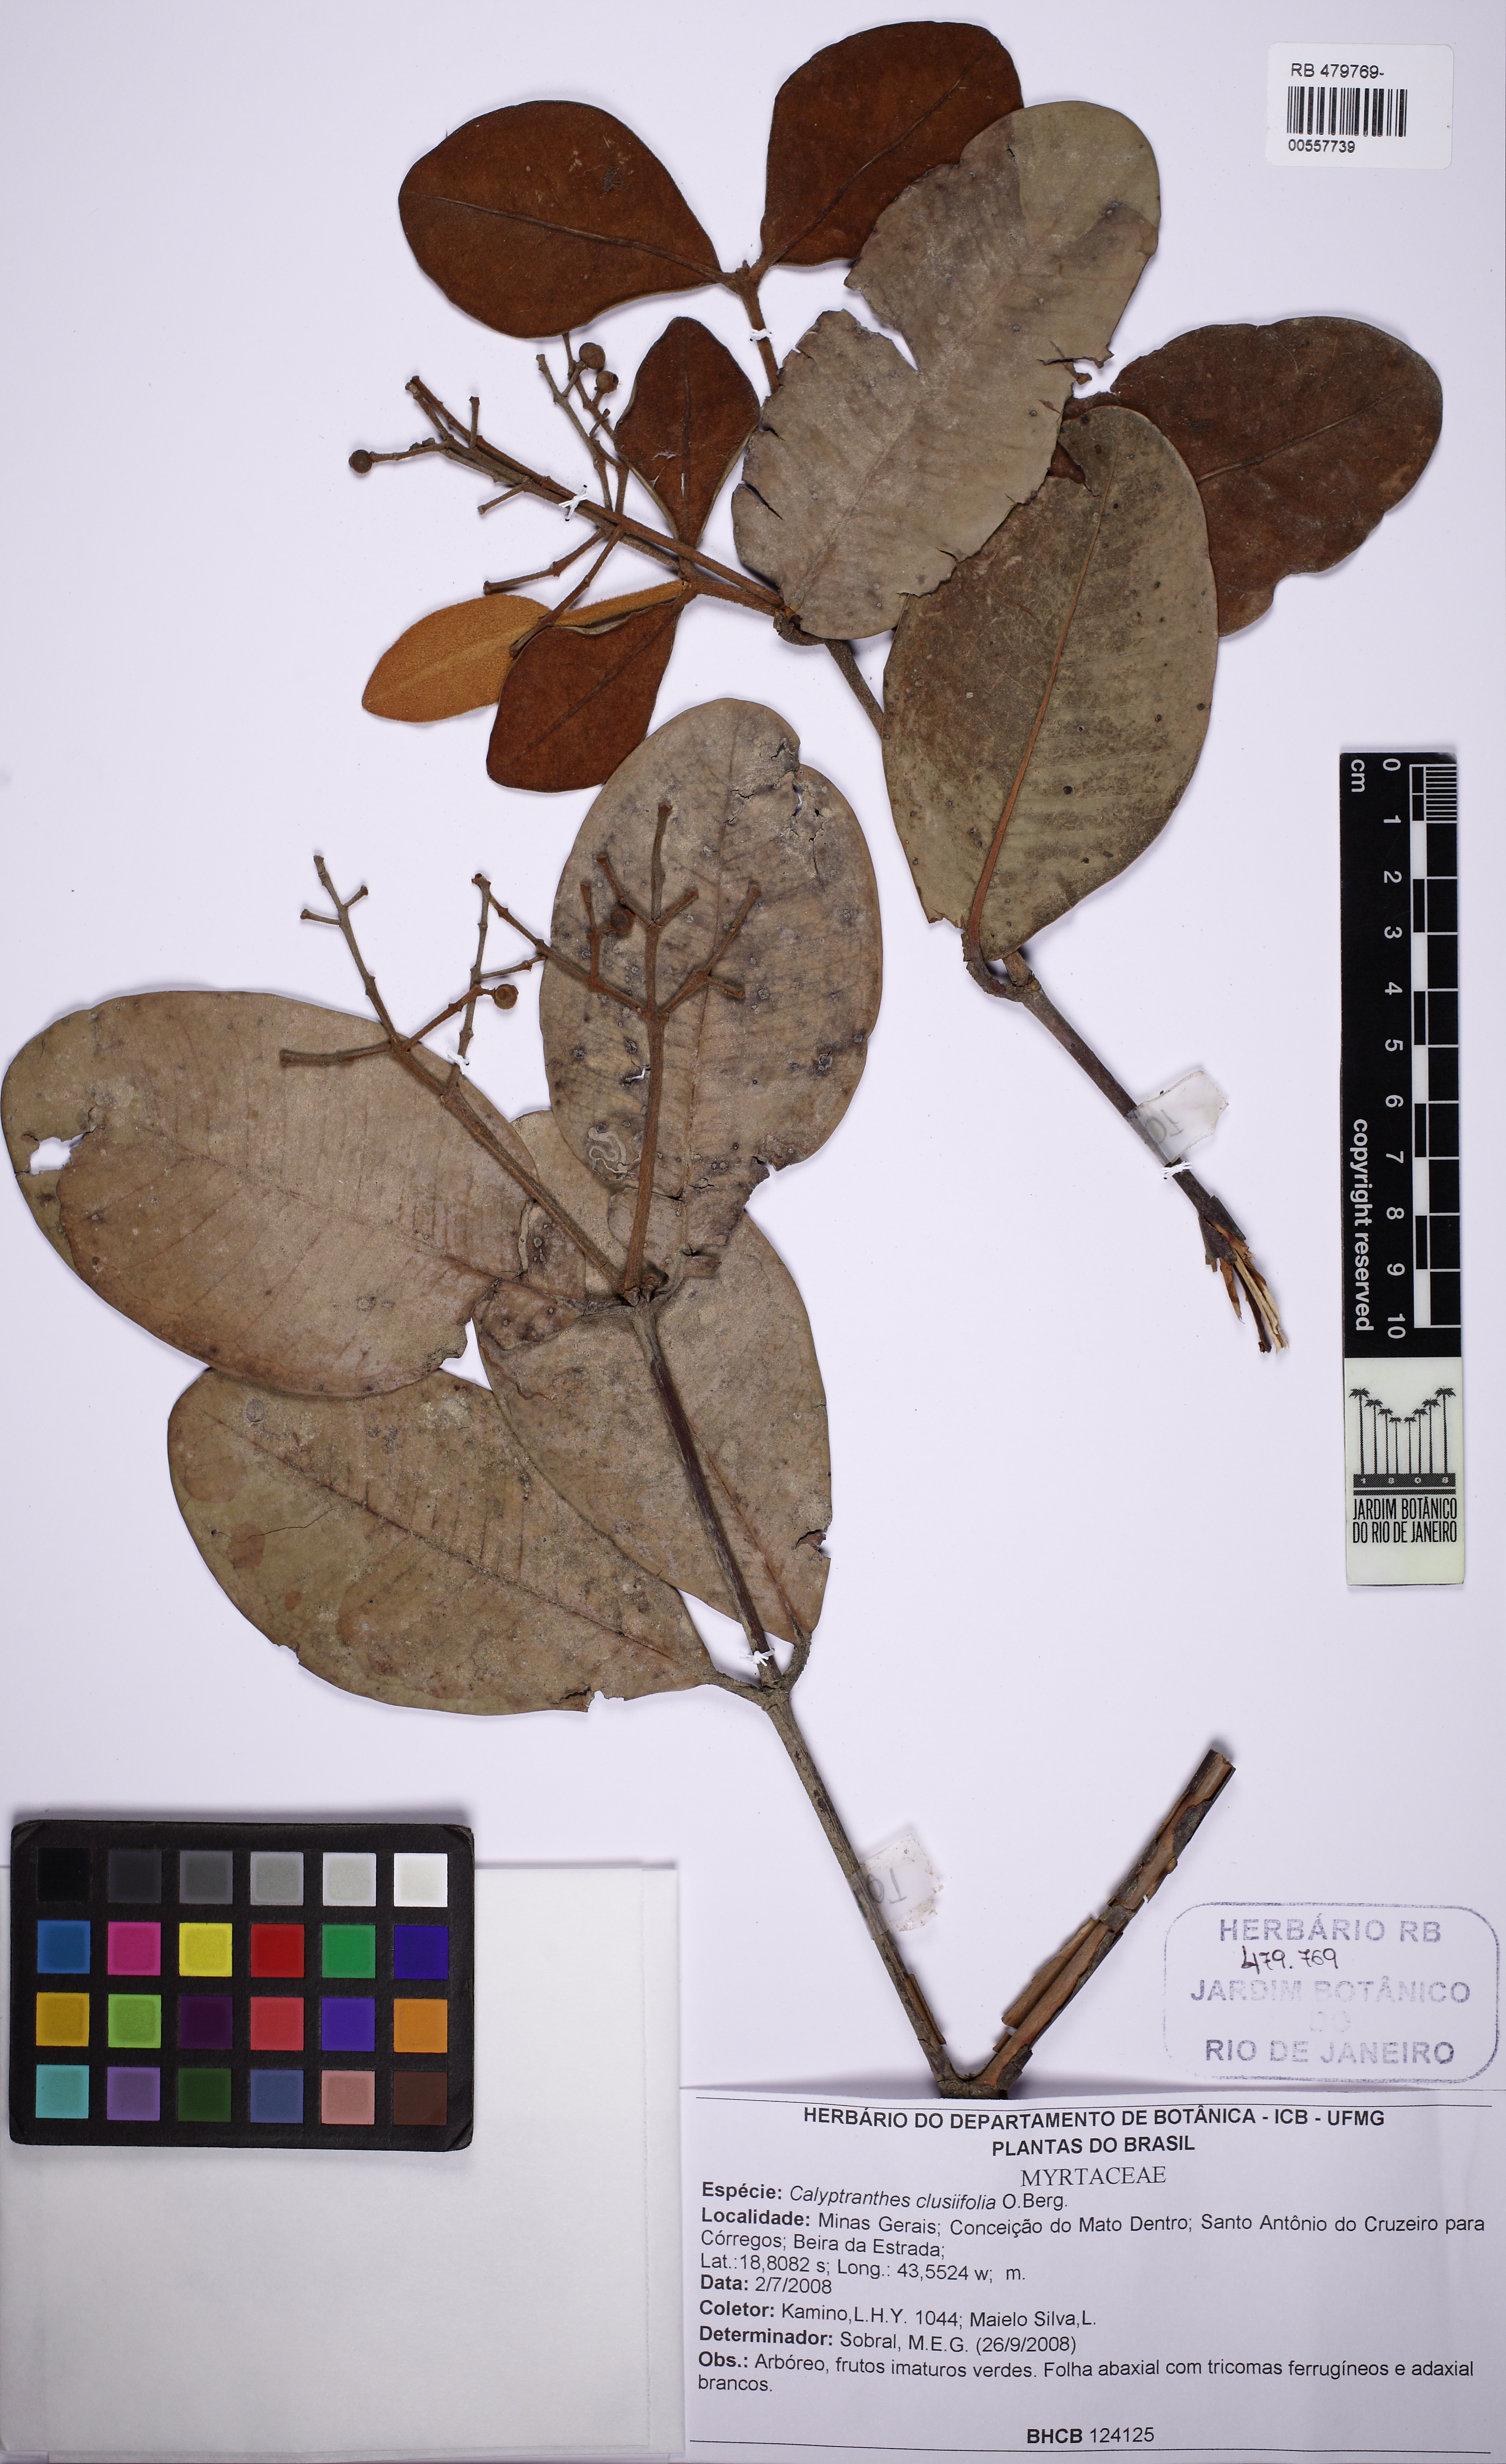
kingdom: Plantae
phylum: Tracheophyta
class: Magnoliopsida
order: Myrtales
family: Myrtaceae
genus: Myrcia
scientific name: Myrcia neoclusiifolia
